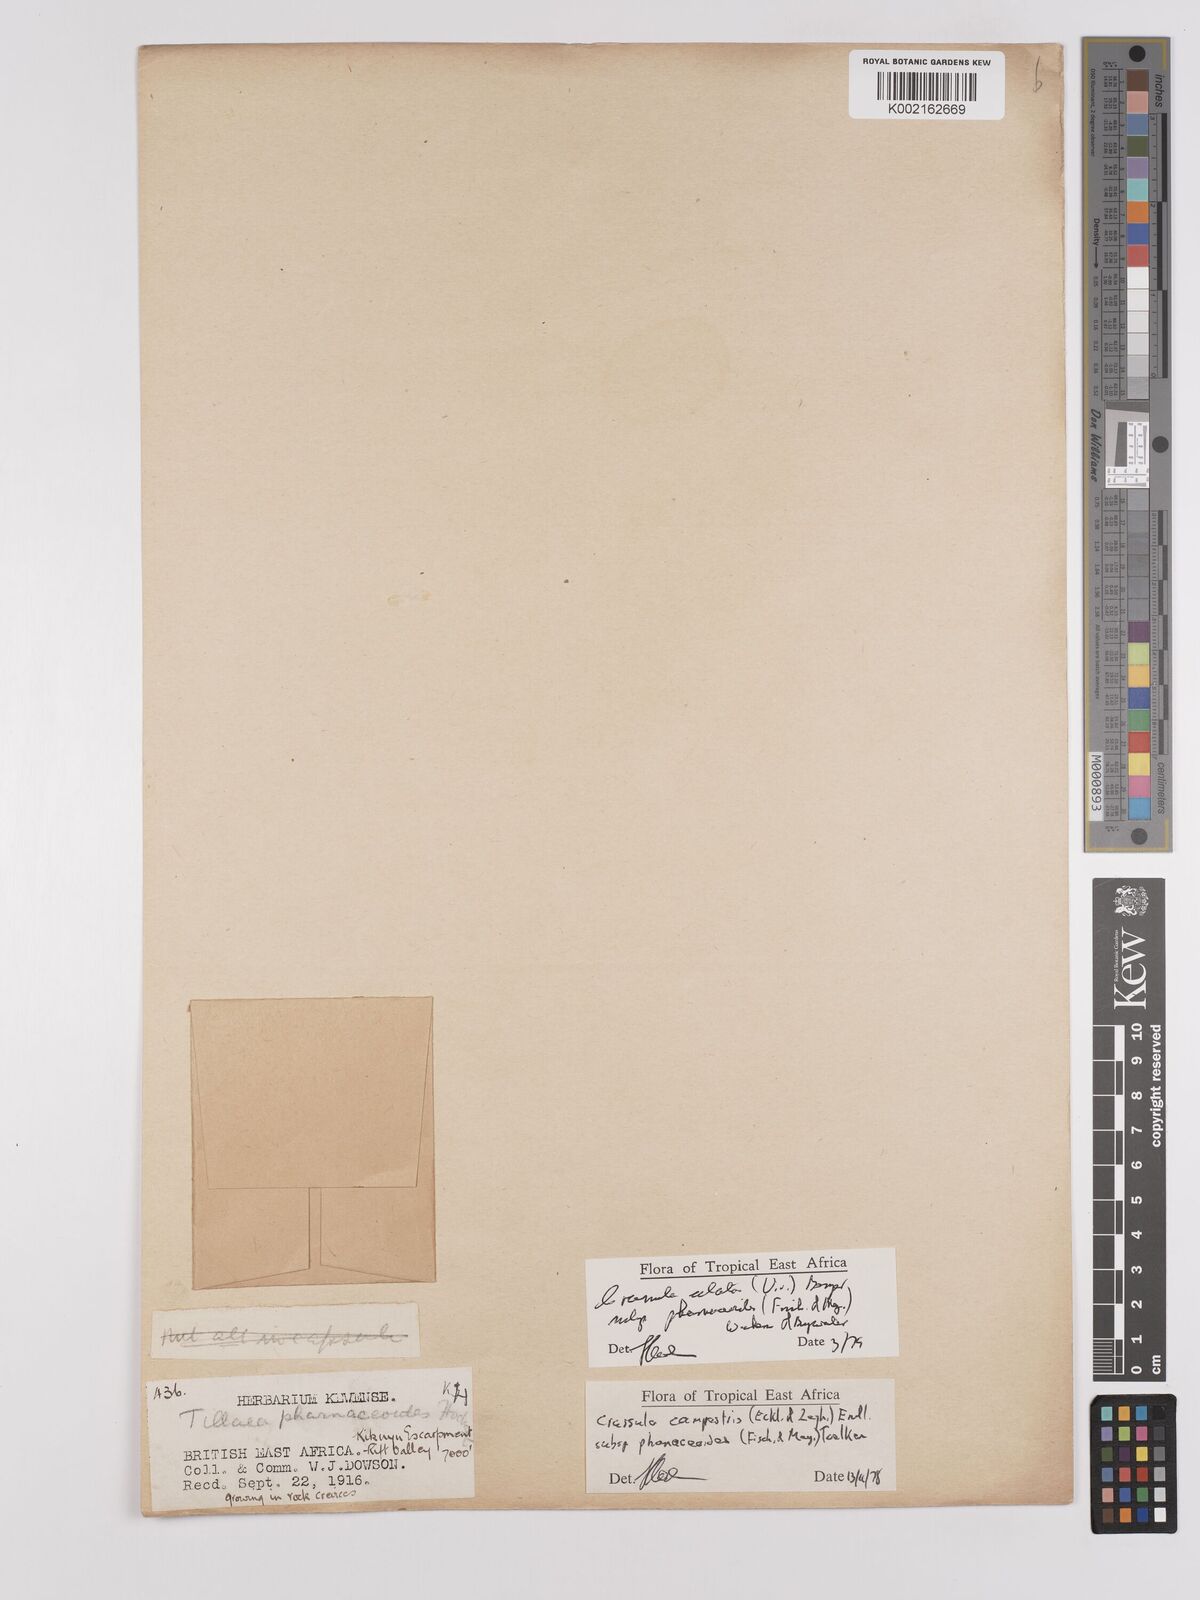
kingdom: Plantae
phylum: Tracheophyta
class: Magnoliopsida
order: Saxifragales
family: Crassulaceae
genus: Crassula
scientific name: Crassula alata
